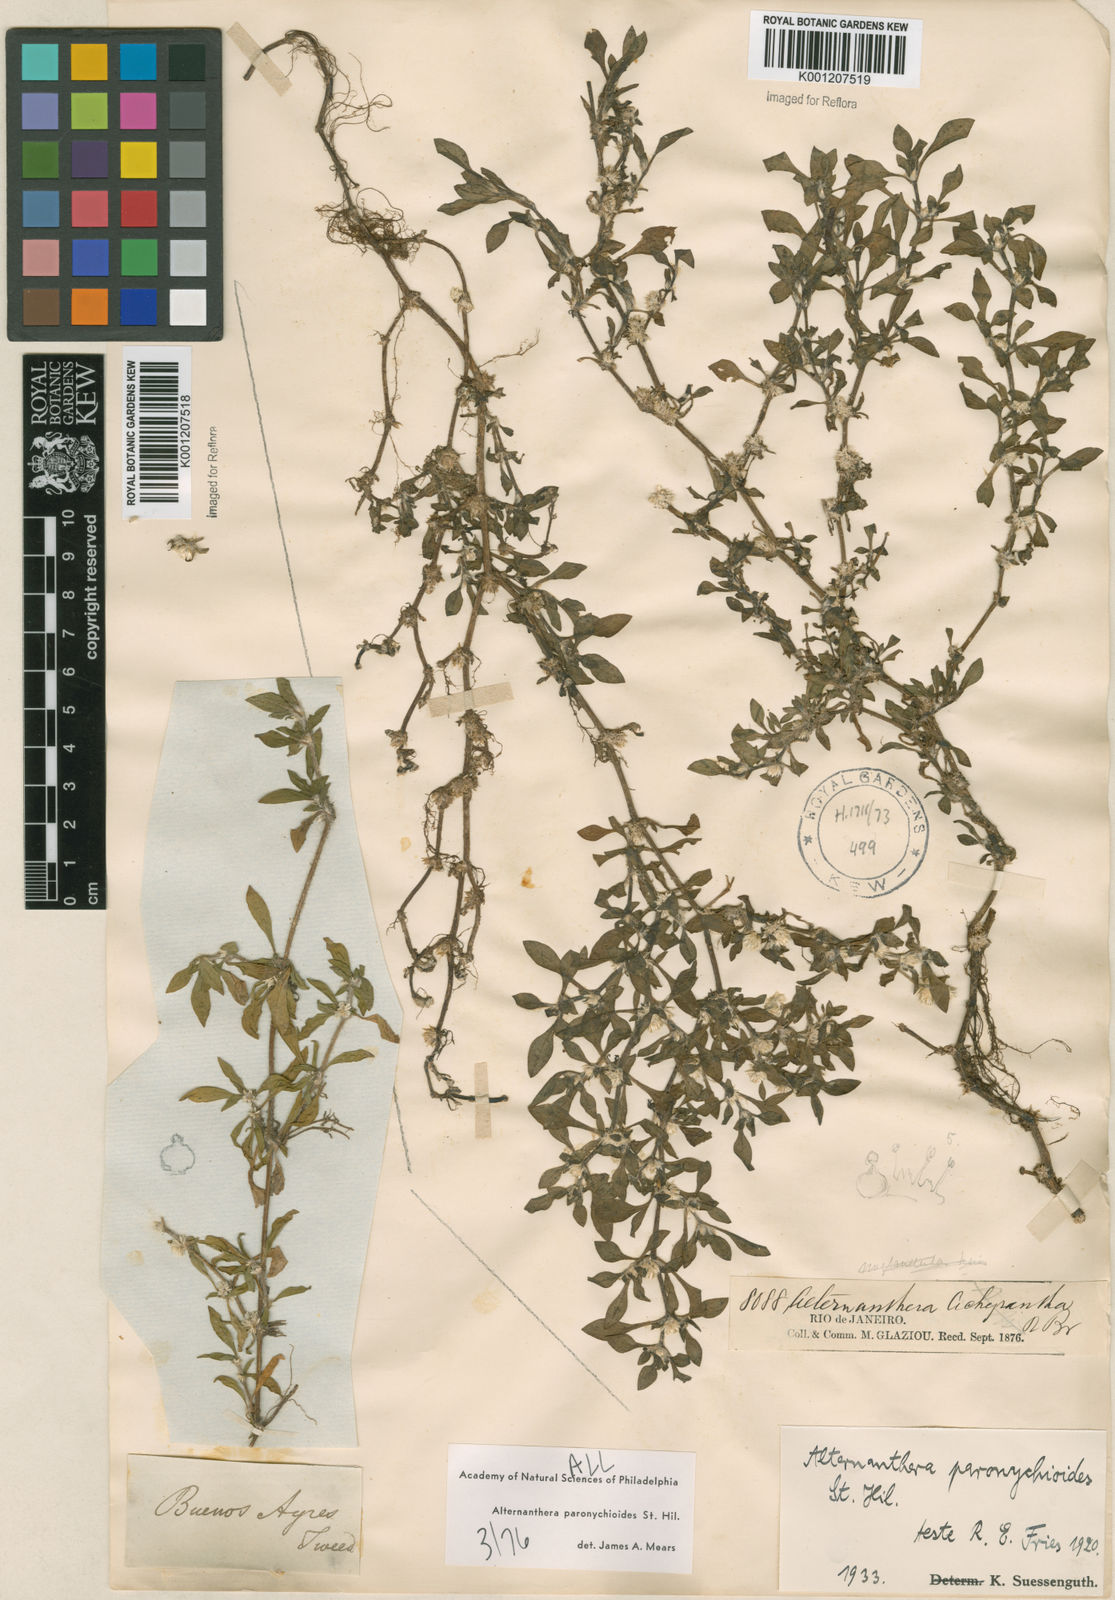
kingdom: Plantae
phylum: Tracheophyta
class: Magnoliopsida
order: Caryophyllales
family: Amaranthaceae
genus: Alternanthera
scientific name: Alternanthera paronychioides
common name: Smooth joyweed
